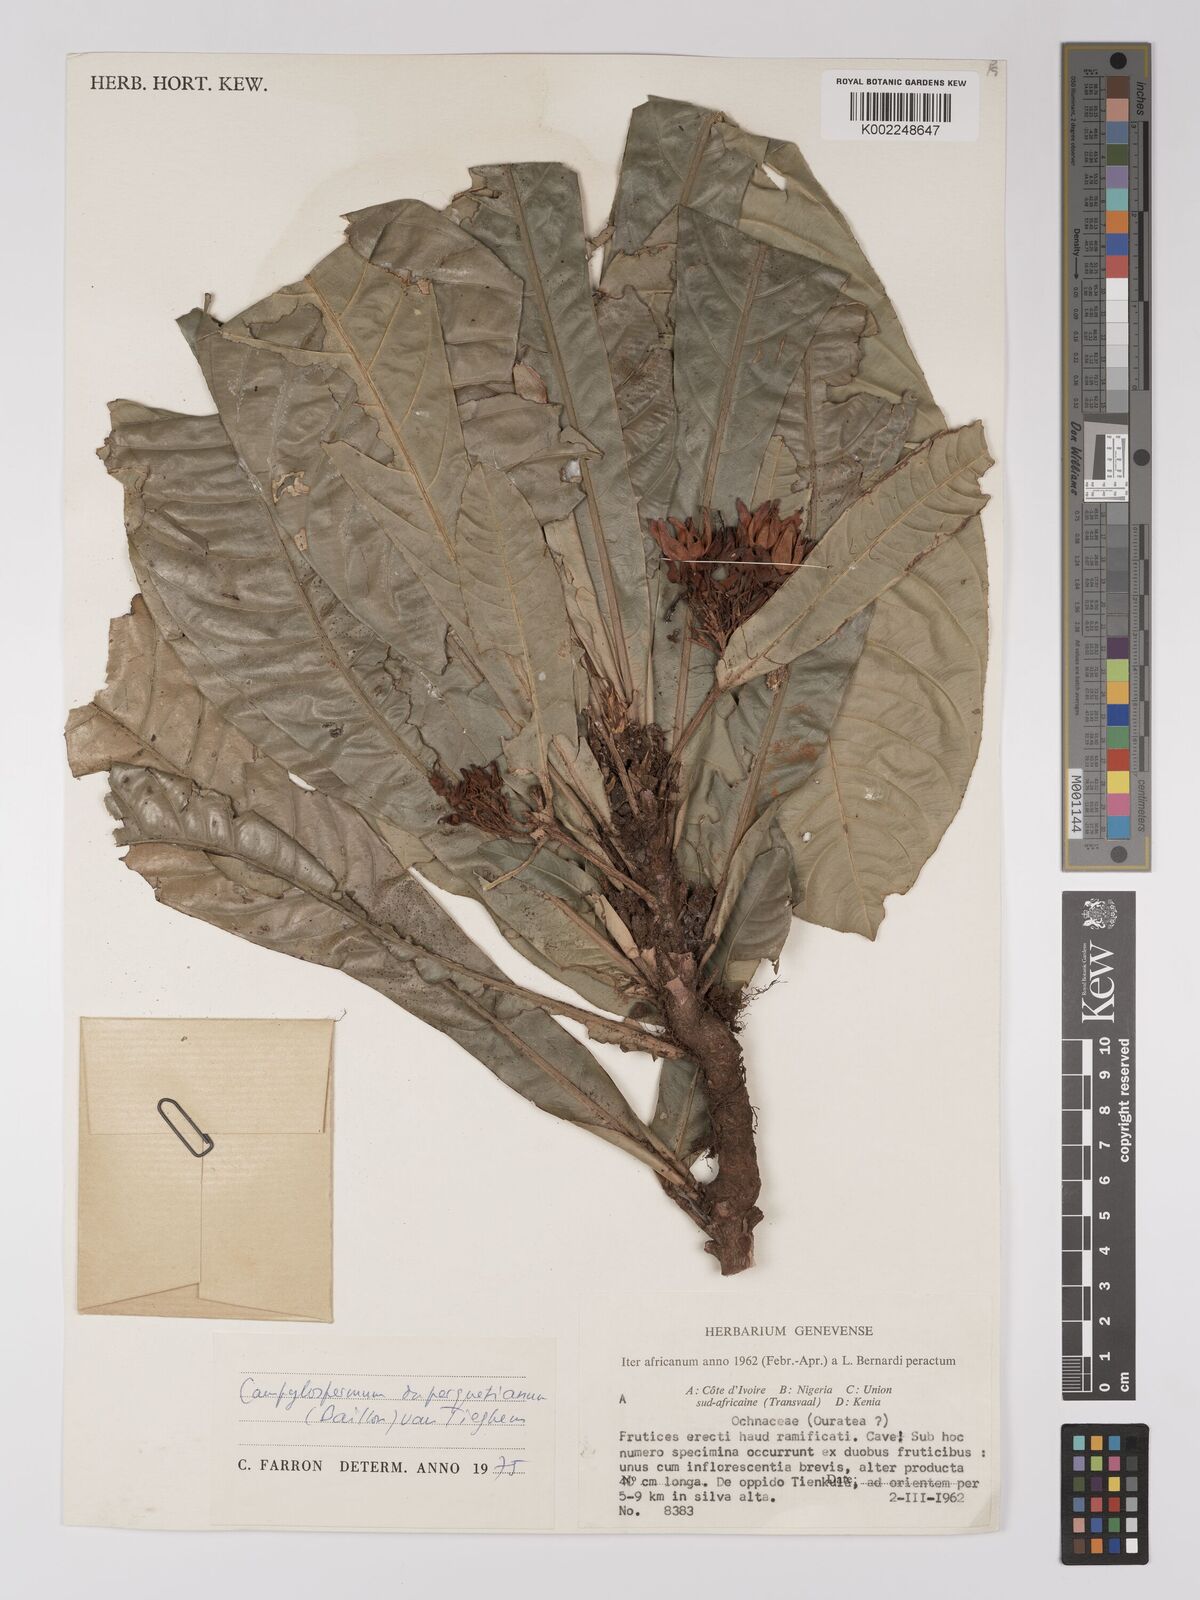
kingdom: Plantae
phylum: Tracheophyta
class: Magnoliopsida
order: Malpighiales
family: Ochnaceae
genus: Campylospermum
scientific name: Campylospermum duparquetianum
